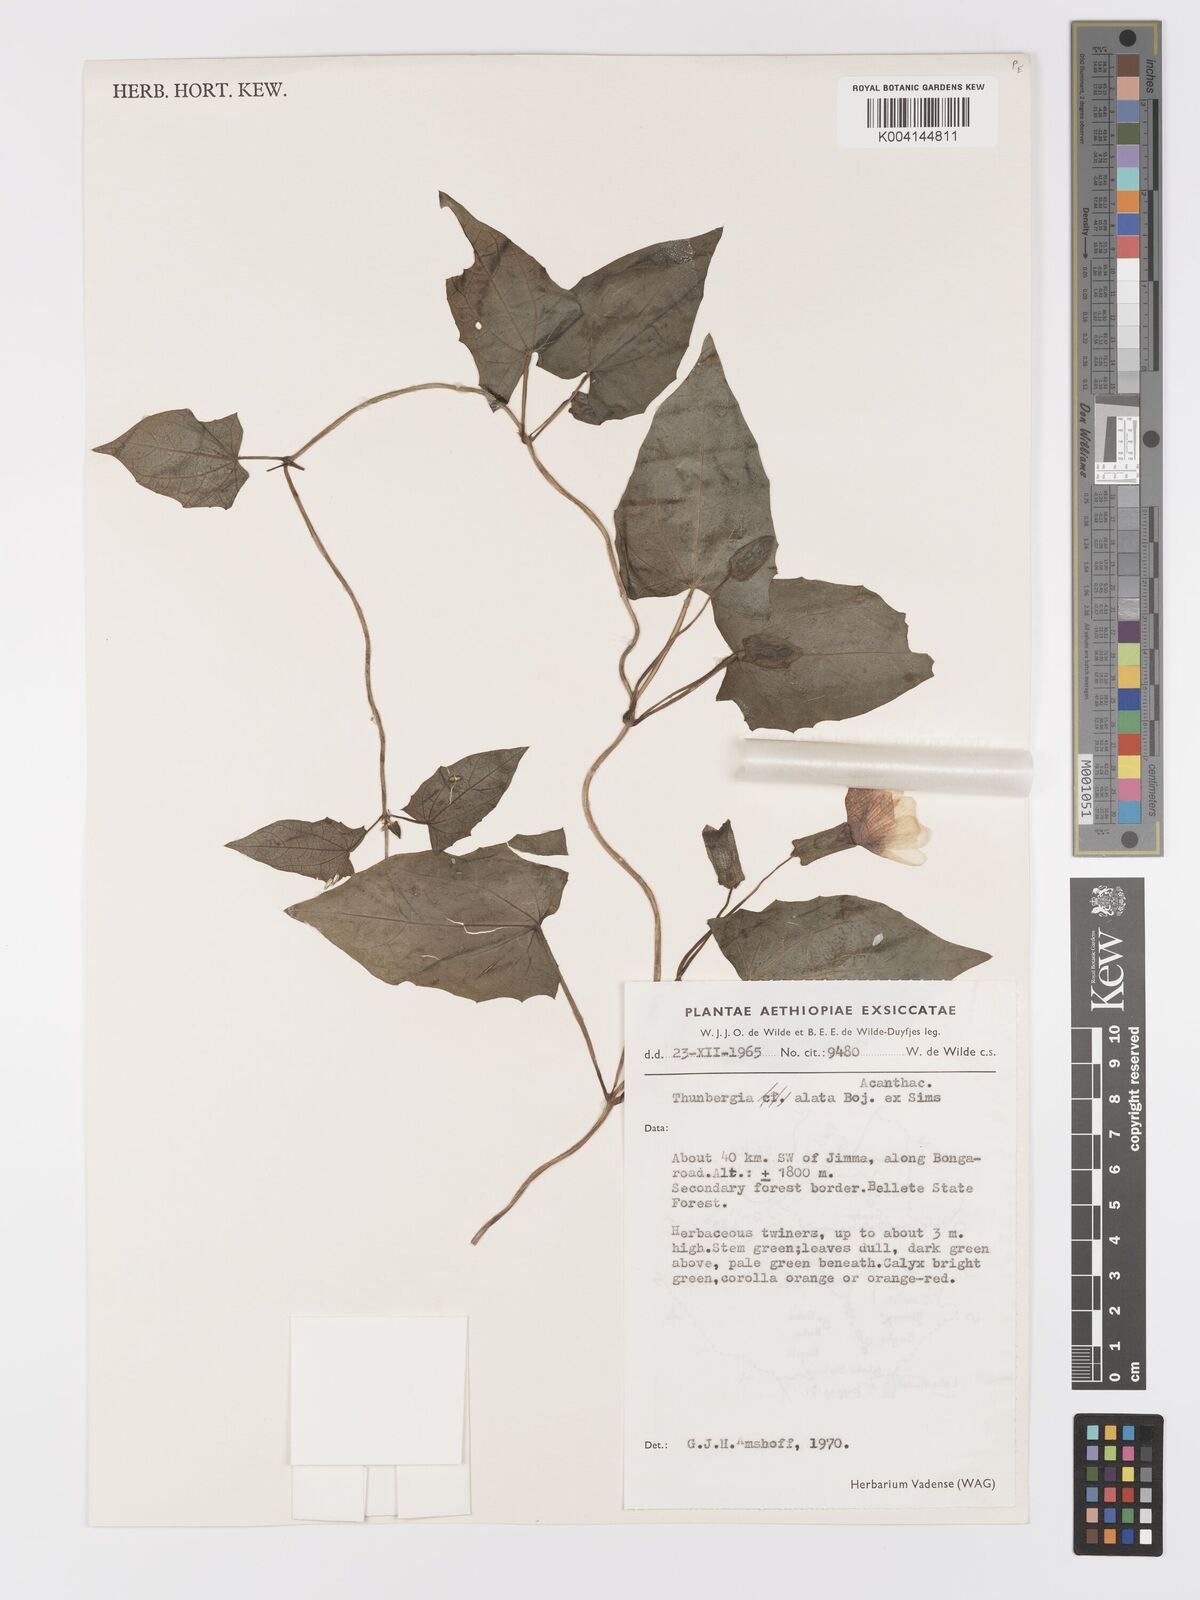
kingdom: Plantae
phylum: Tracheophyta
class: Magnoliopsida
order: Lamiales
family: Acanthaceae
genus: Thunbergia
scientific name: Thunbergia alata
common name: Blackeyed susan vine
